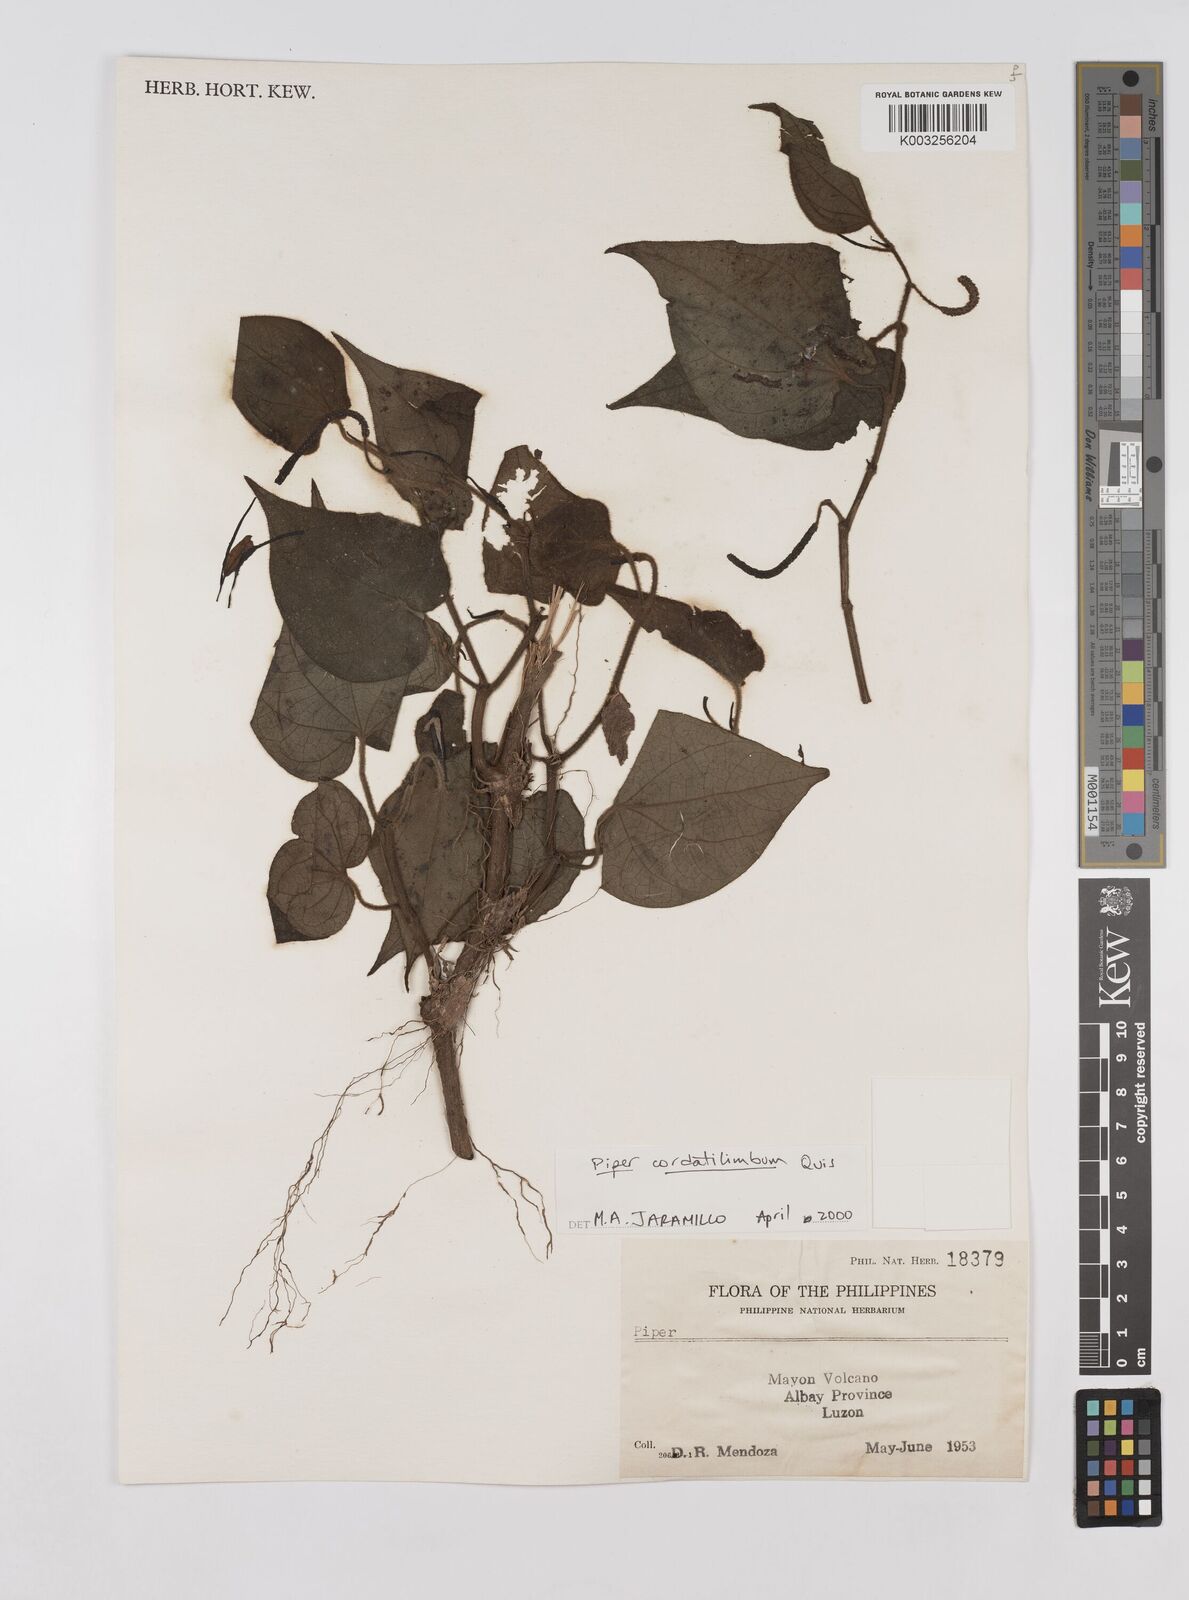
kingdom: Plantae
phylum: Tracheophyta
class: Magnoliopsida
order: Piperales
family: Piperaceae
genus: Piper
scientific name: Piper cordatilimbum
